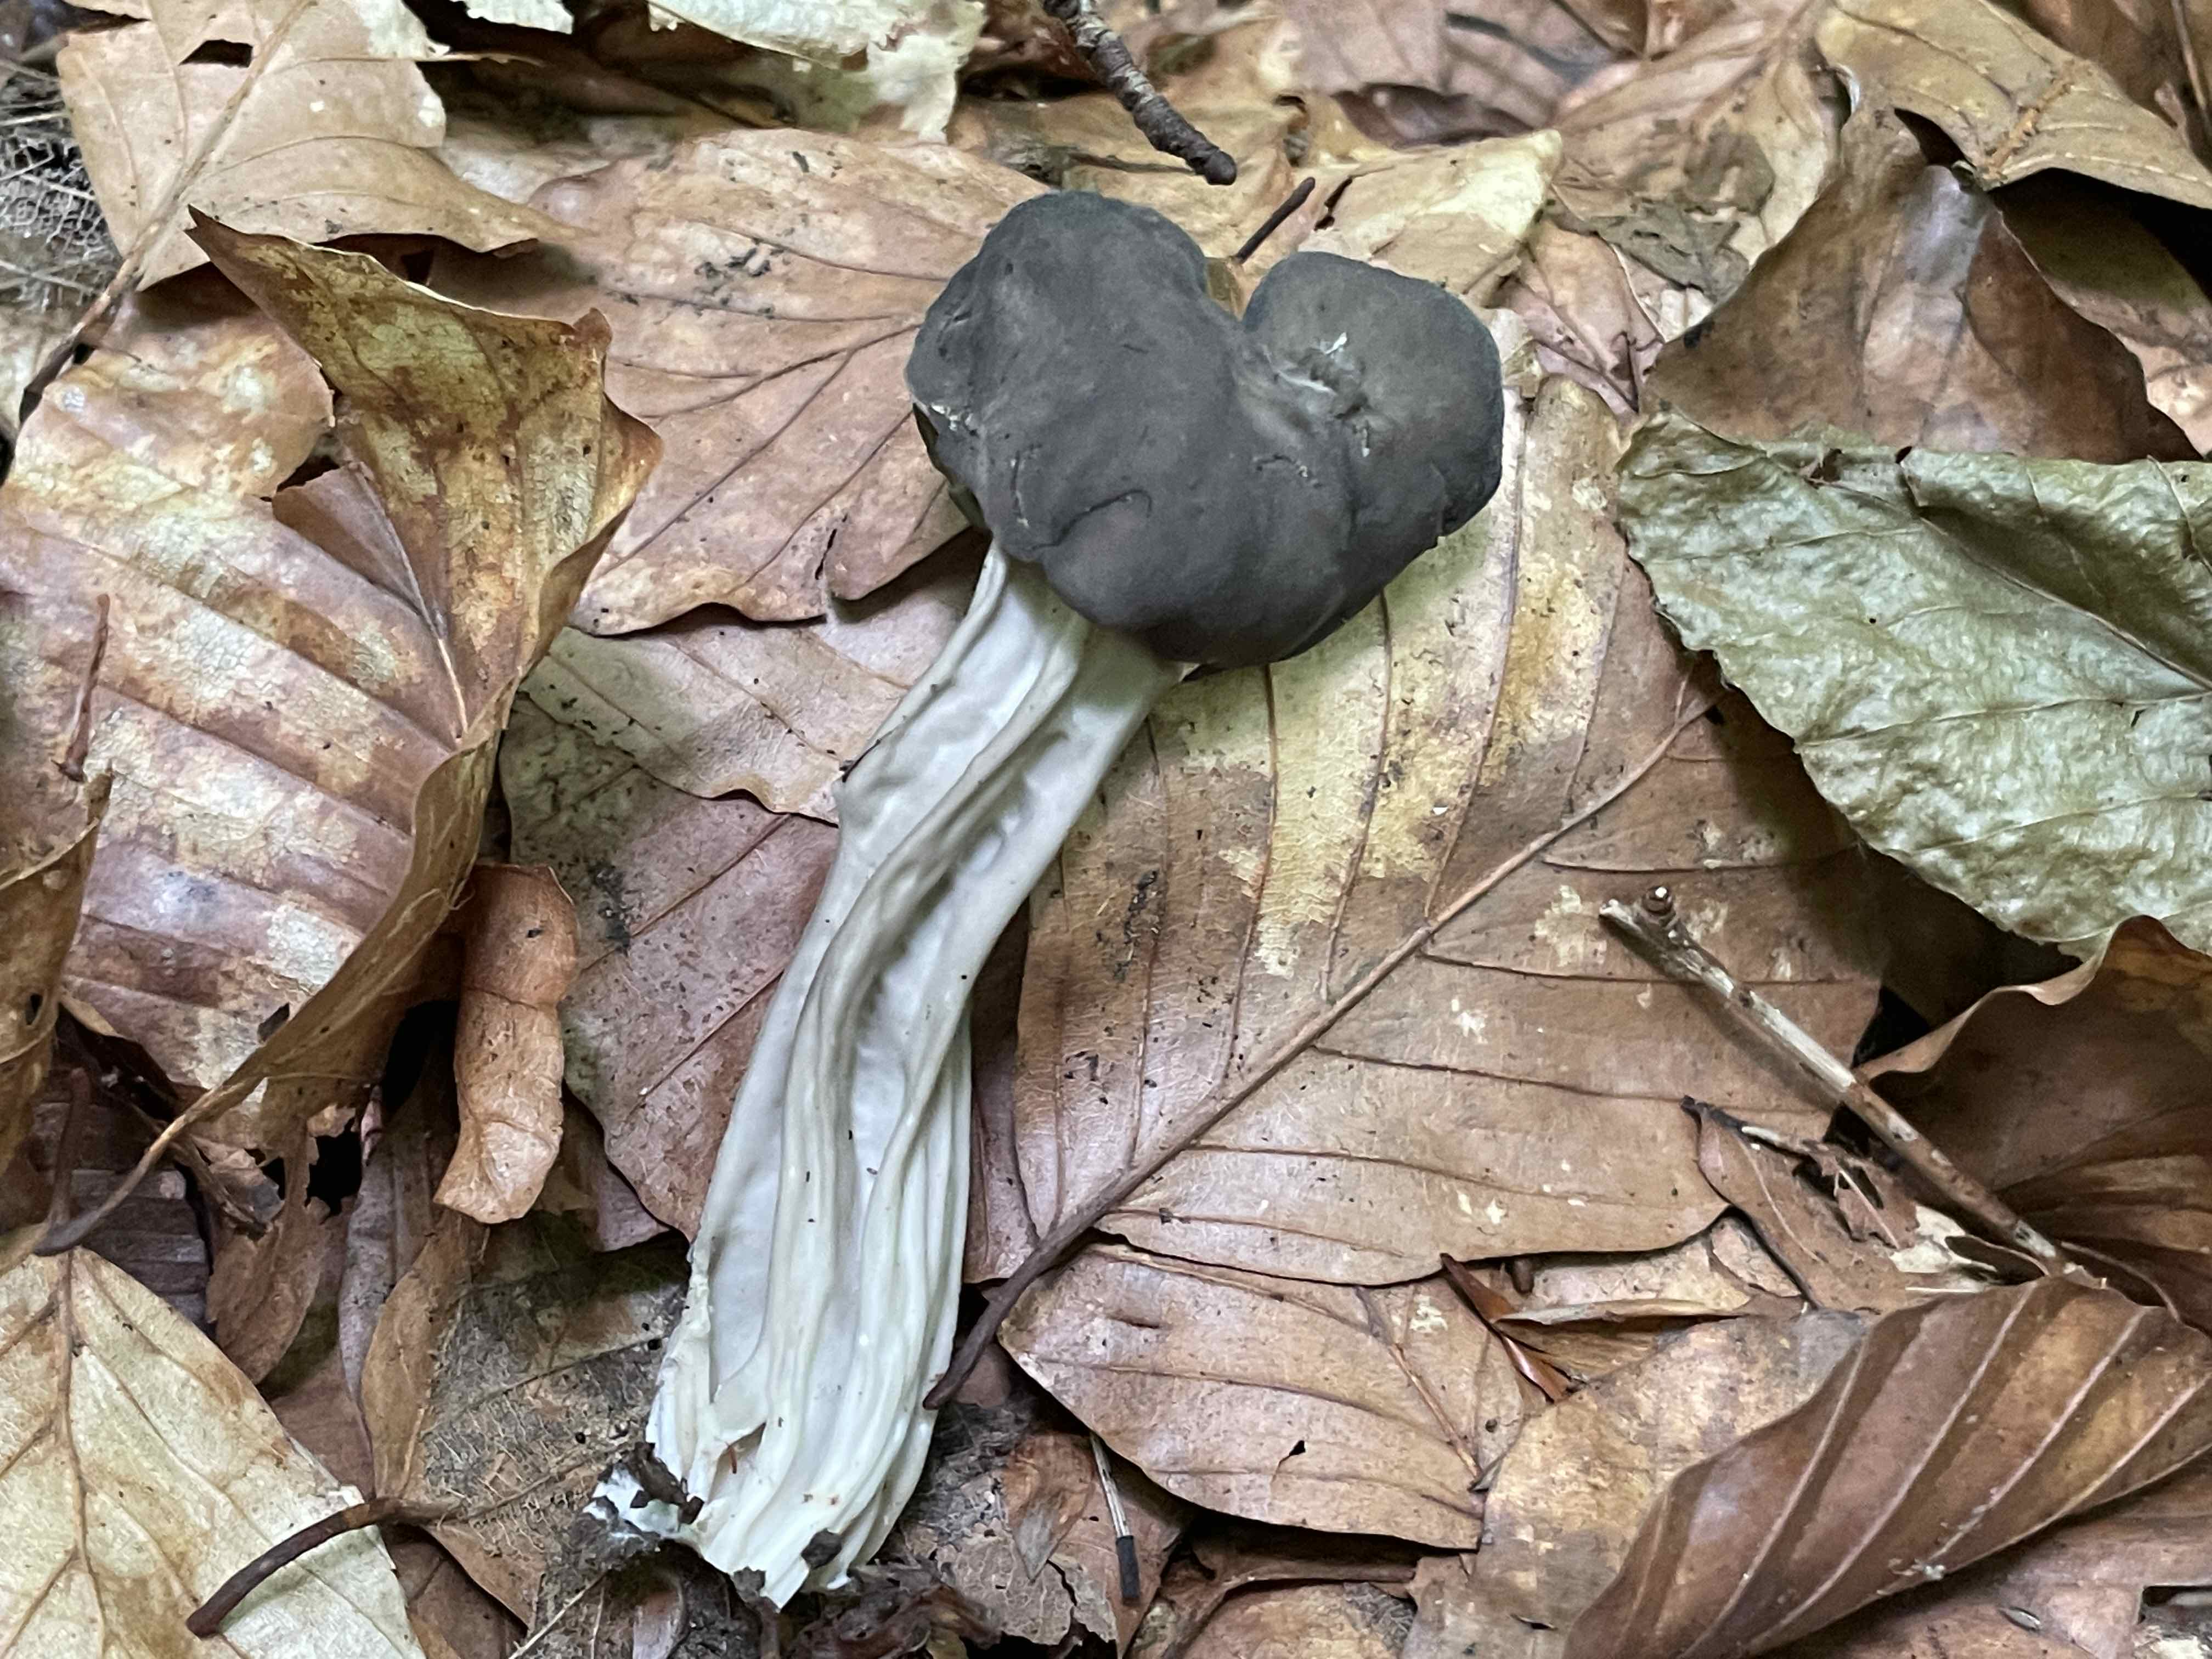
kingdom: Fungi
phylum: Ascomycota
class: Pezizomycetes
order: Pezizales
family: Helvellaceae
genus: Helvella
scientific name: Helvella lacunosa
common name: grubet foldhat
